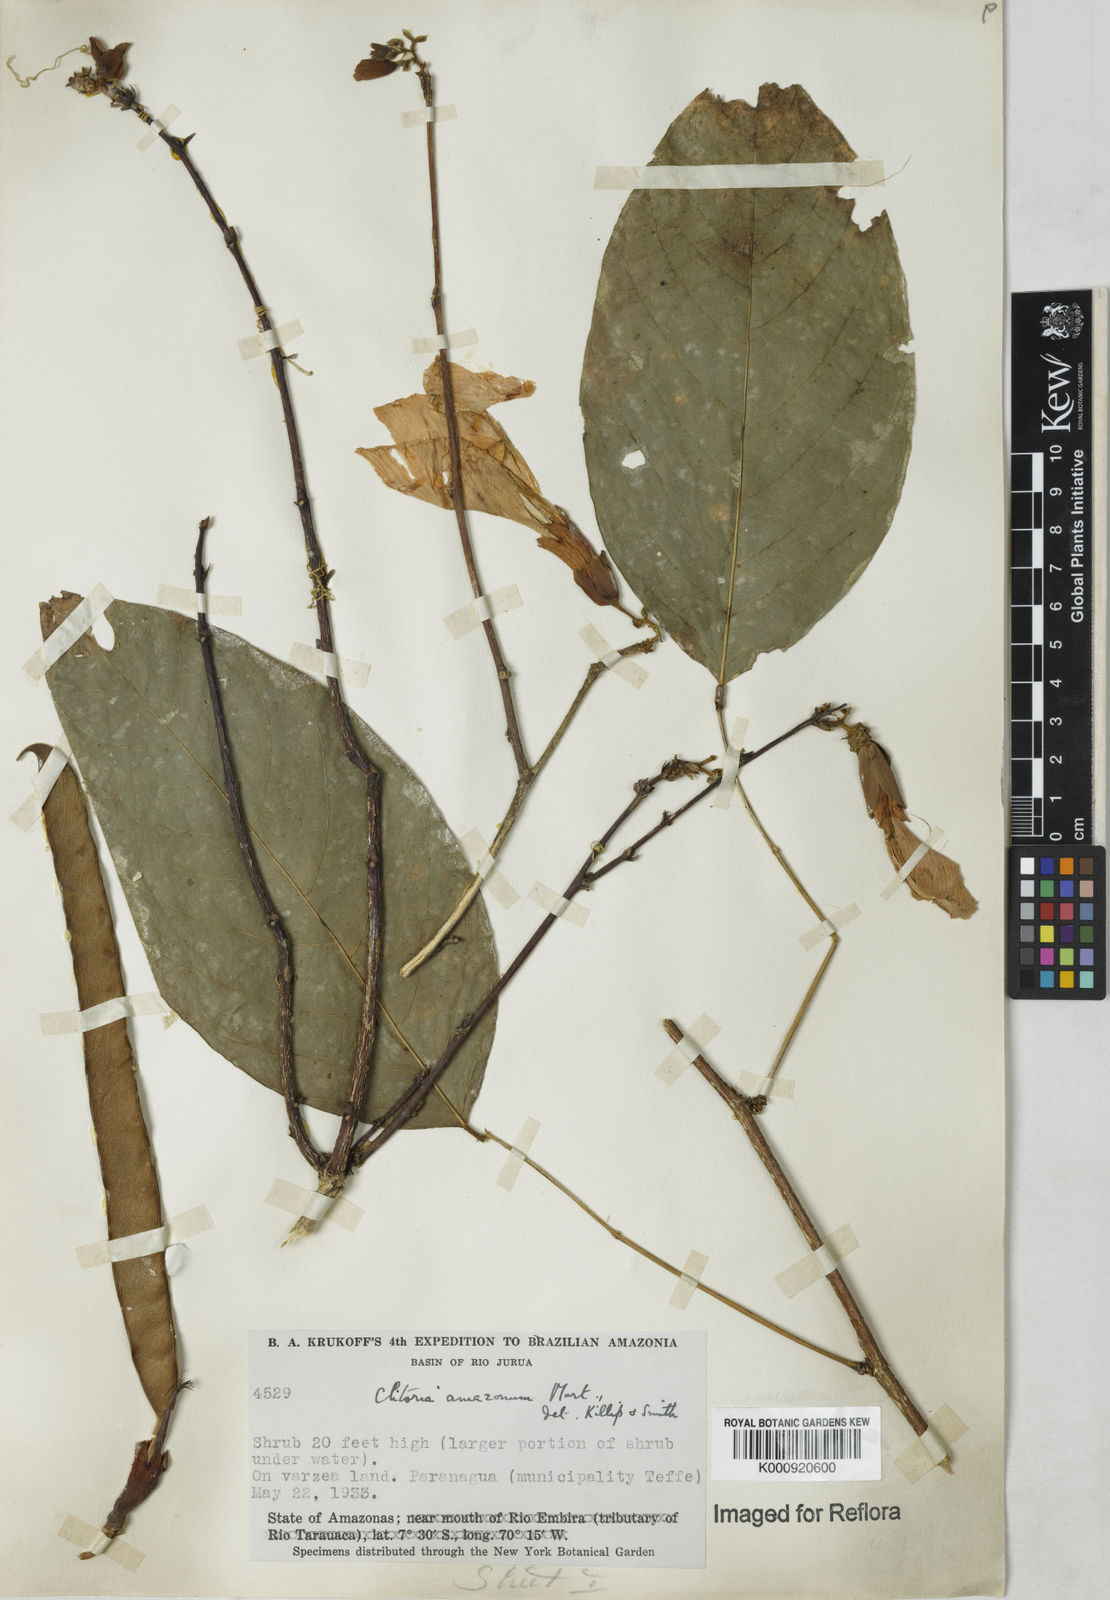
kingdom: Plantae
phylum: Tracheophyta
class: Magnoliopsida
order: Fabales
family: Fabaceae
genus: Clitoria
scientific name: Clitoria amazonum
